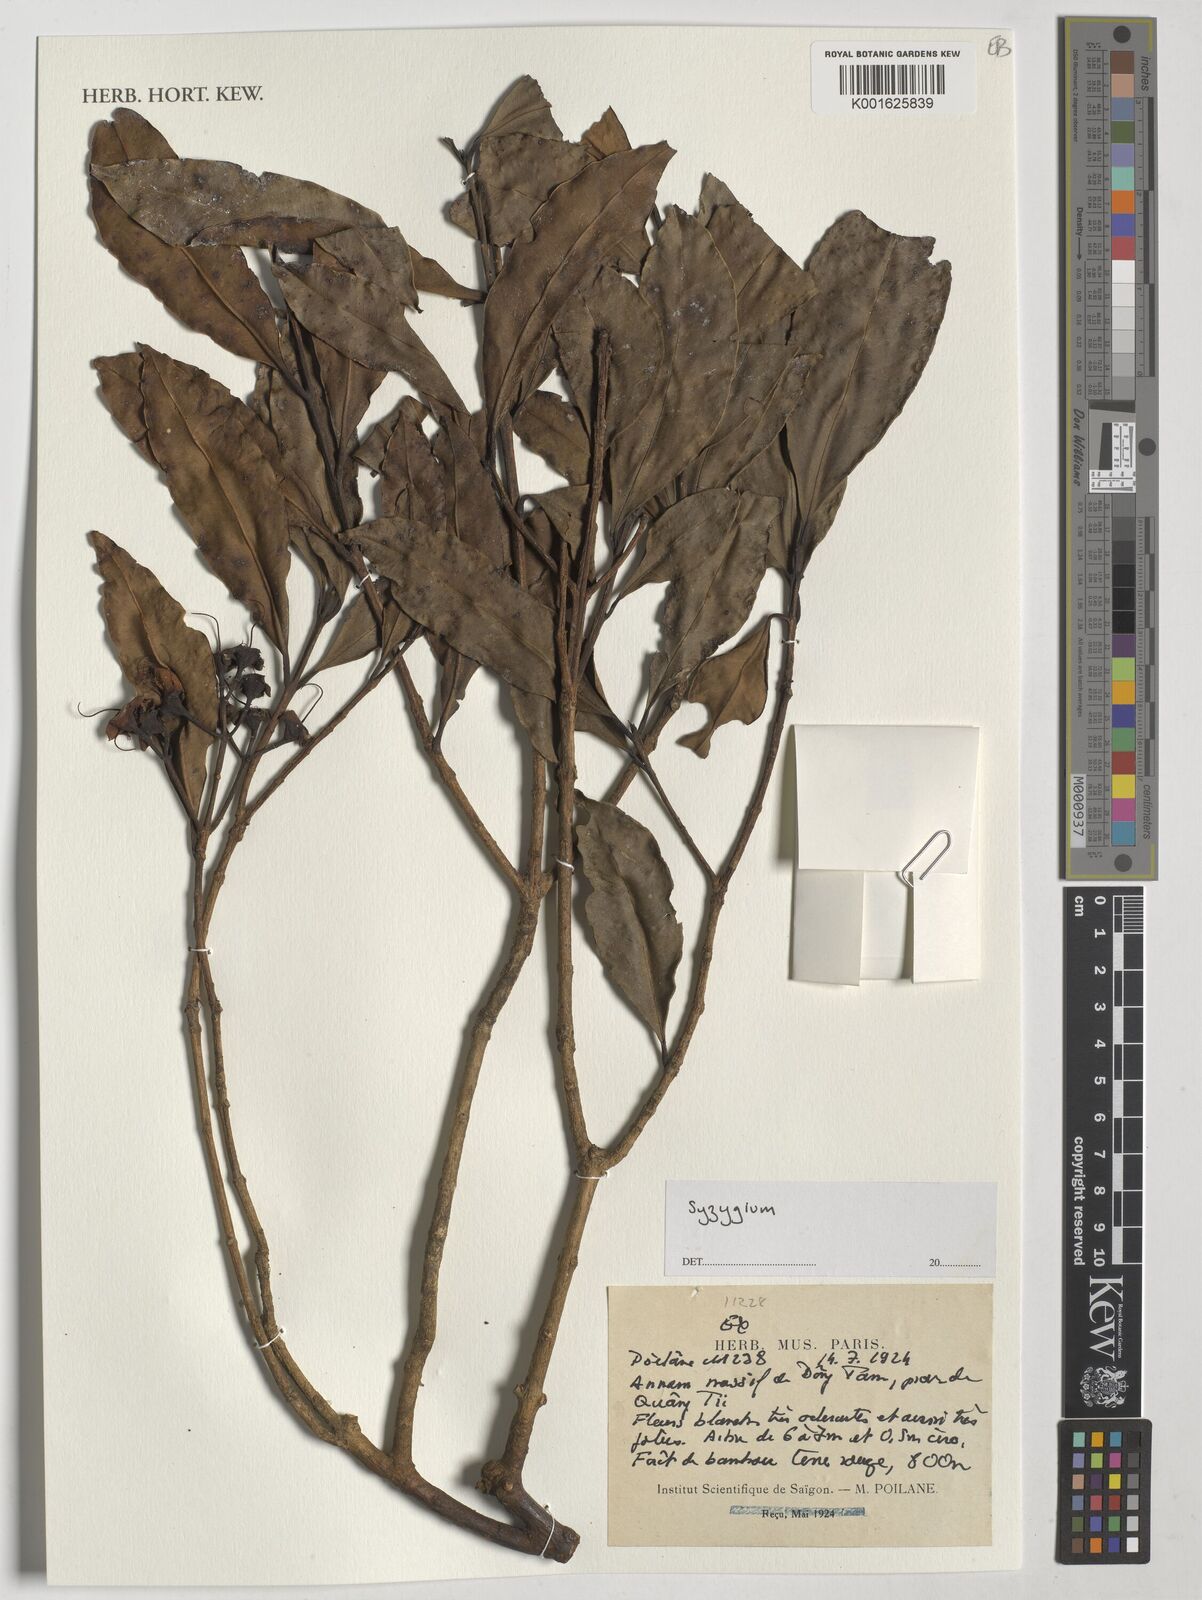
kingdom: Plantae
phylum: Tracheophyta
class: Magnoliopsida
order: Myrtales
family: Myrtaceae
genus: Syzygium
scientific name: Syzygium
